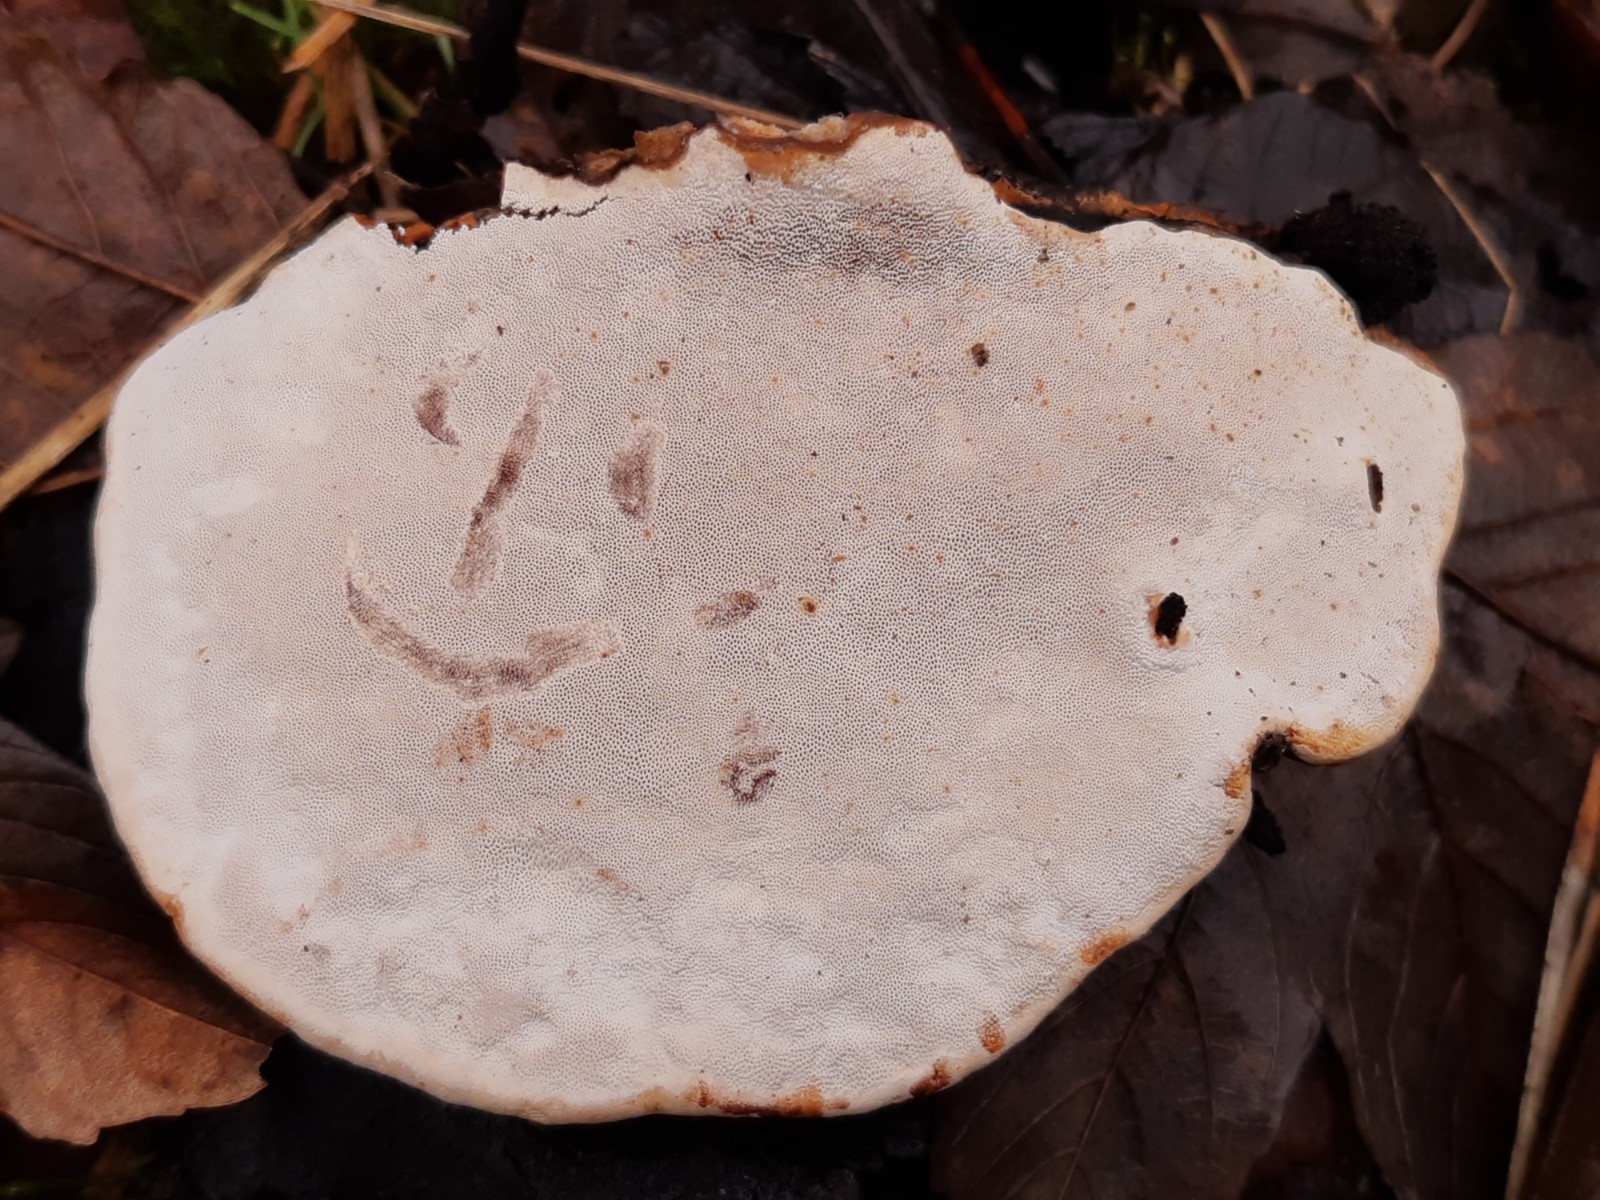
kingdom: Fungi
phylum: Basidiomycota
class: Agaricomycetes
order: Polyporales
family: Polyporaceae
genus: Ganoderma
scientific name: Ganoderma applanatum
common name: flad lakporesvamp
